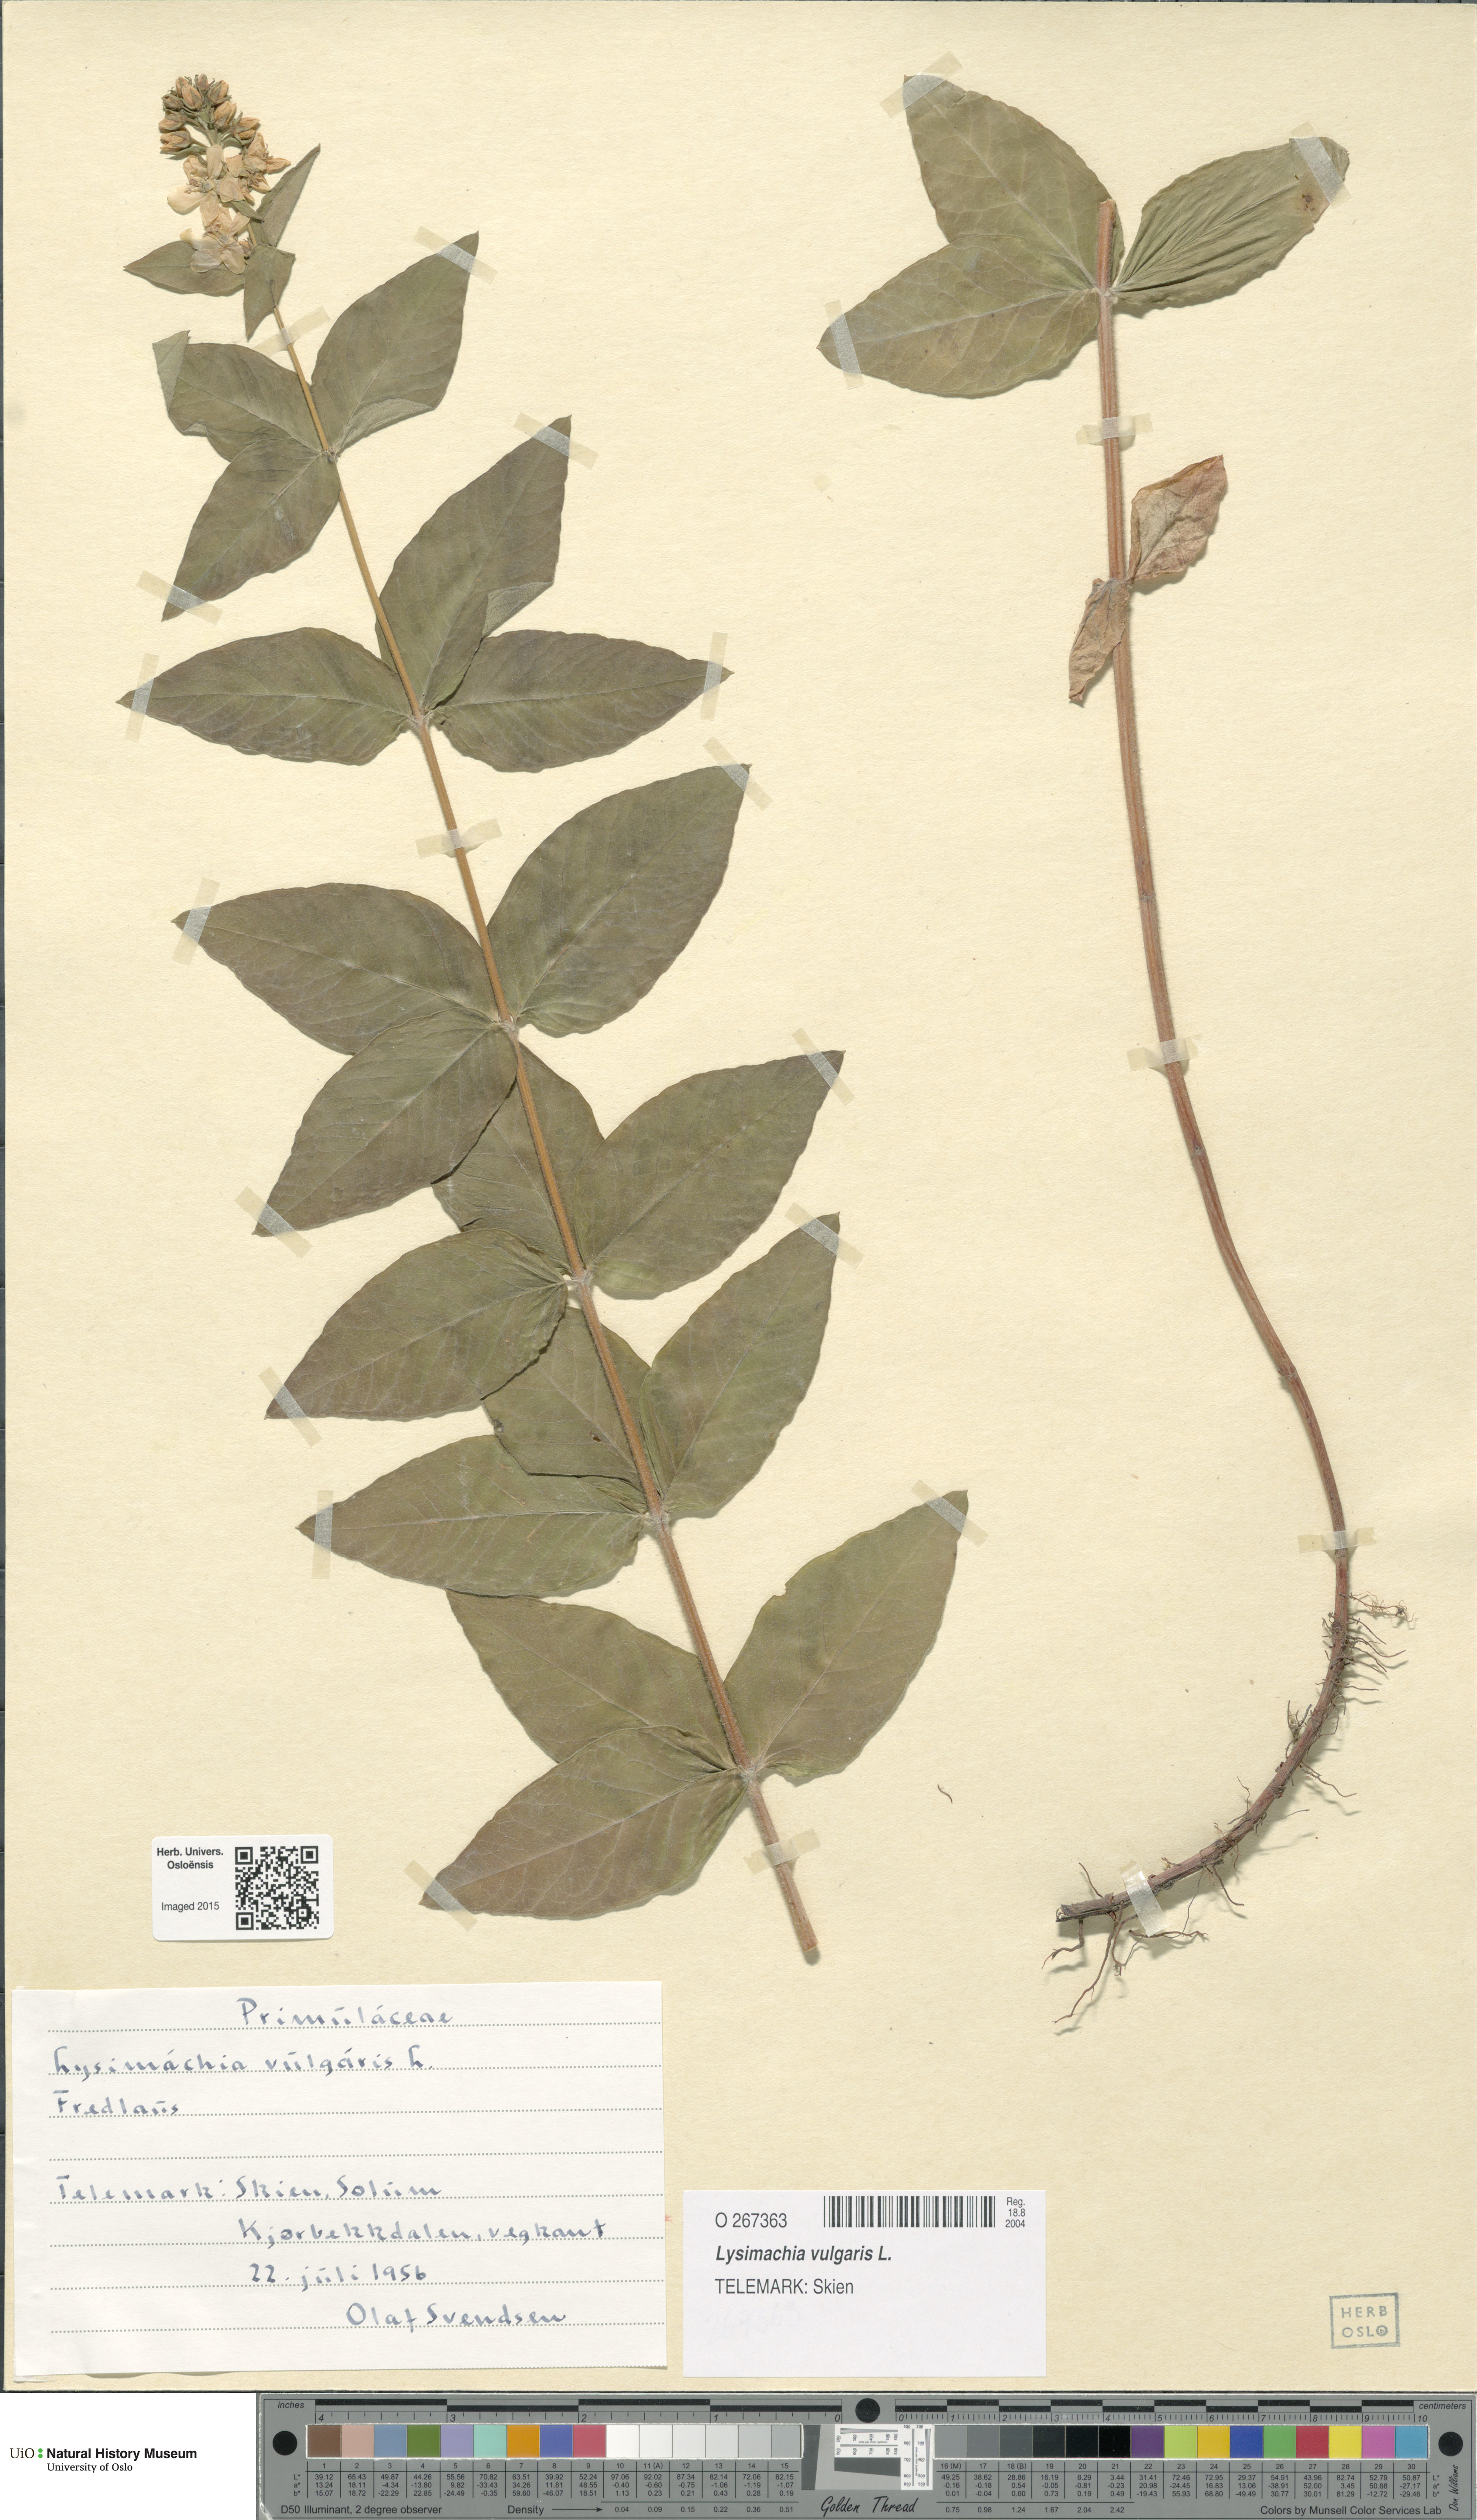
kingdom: Plantae
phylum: Tracheophyta
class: Magnoliopsida
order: Ericales
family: Primulaceae
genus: Lysimachia
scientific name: Lysimachia vulgaris
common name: Yellow loosestrife
